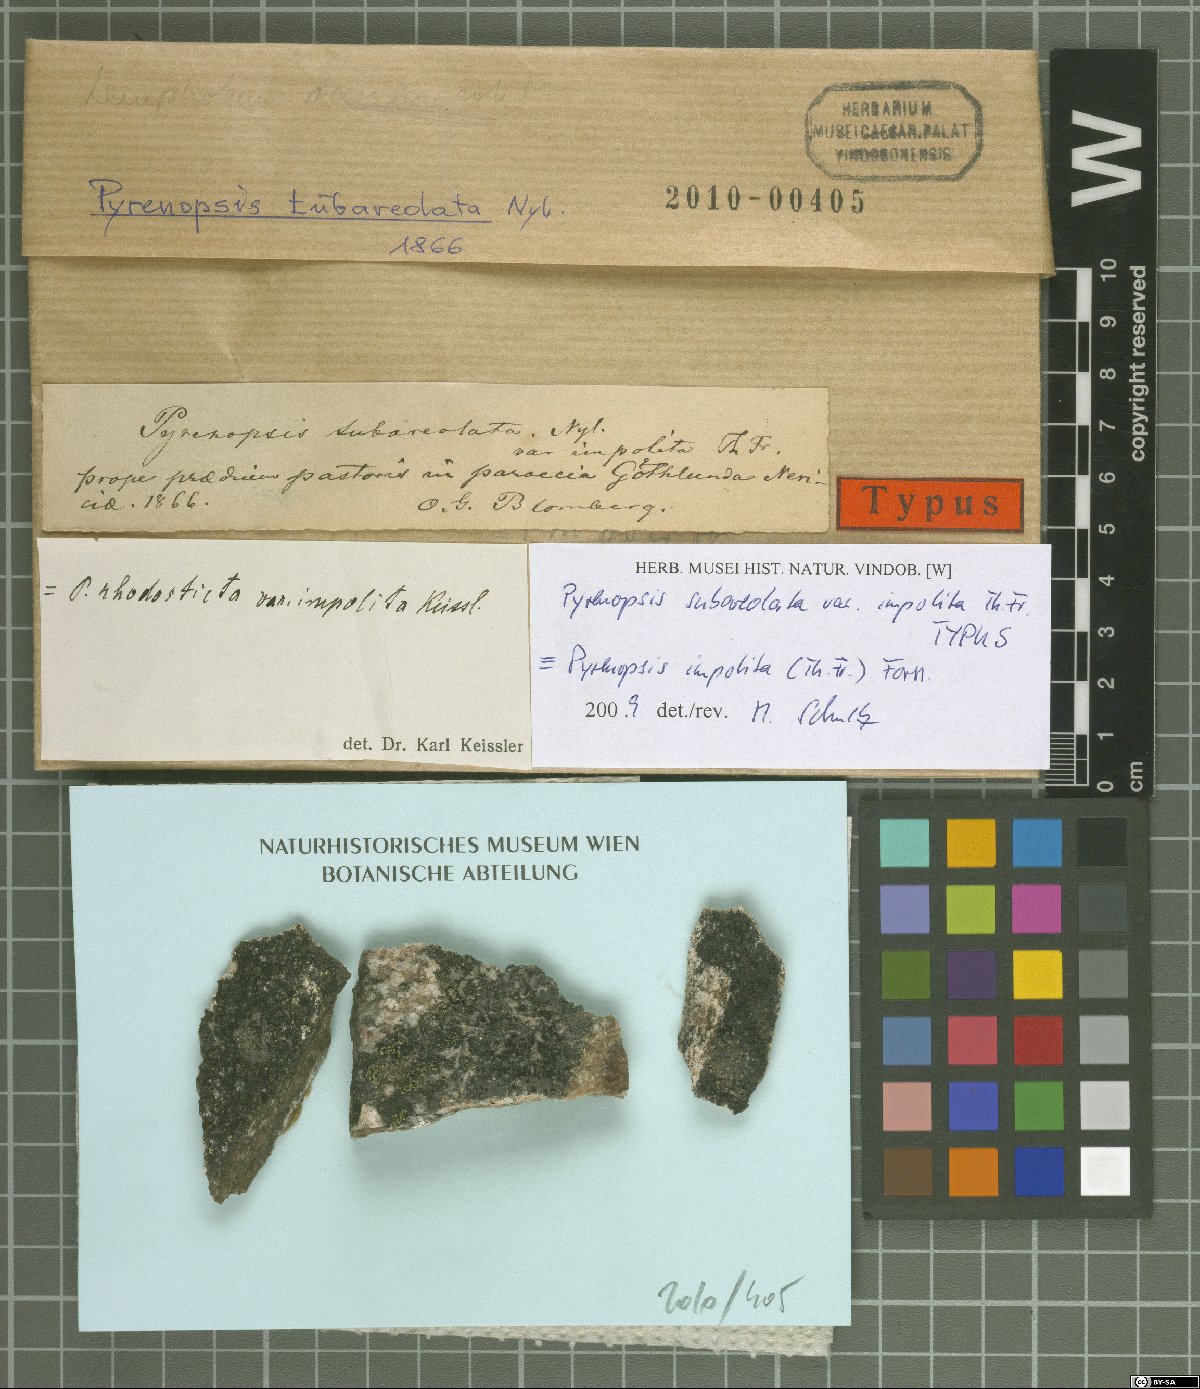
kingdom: Fungi
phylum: Ascomycota
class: Lichinomycetes
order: Lichinales
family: Lichinaceae
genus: Pyrenopsis
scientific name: Pyrenopsis impolita
